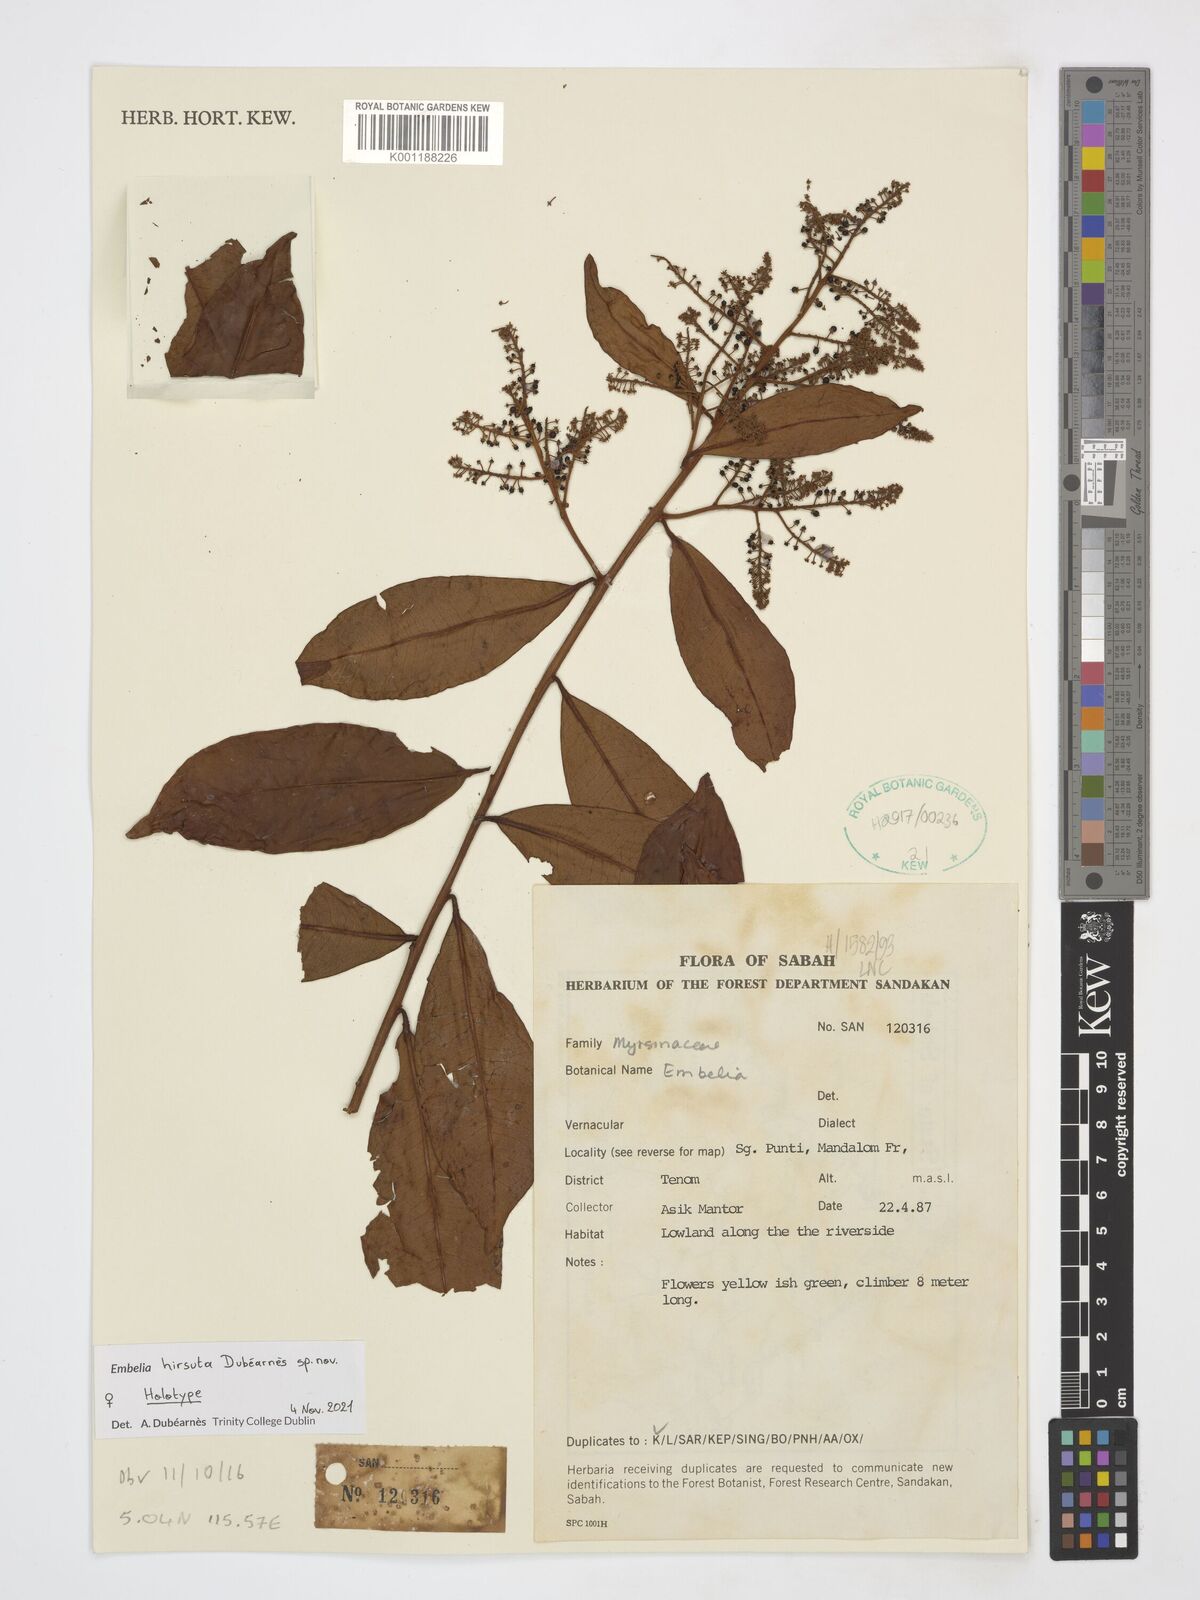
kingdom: Plantae
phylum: Tracheophyta
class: Magnoliopsida
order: Ericales
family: Primulaceae
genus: Embelia
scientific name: Embelia
